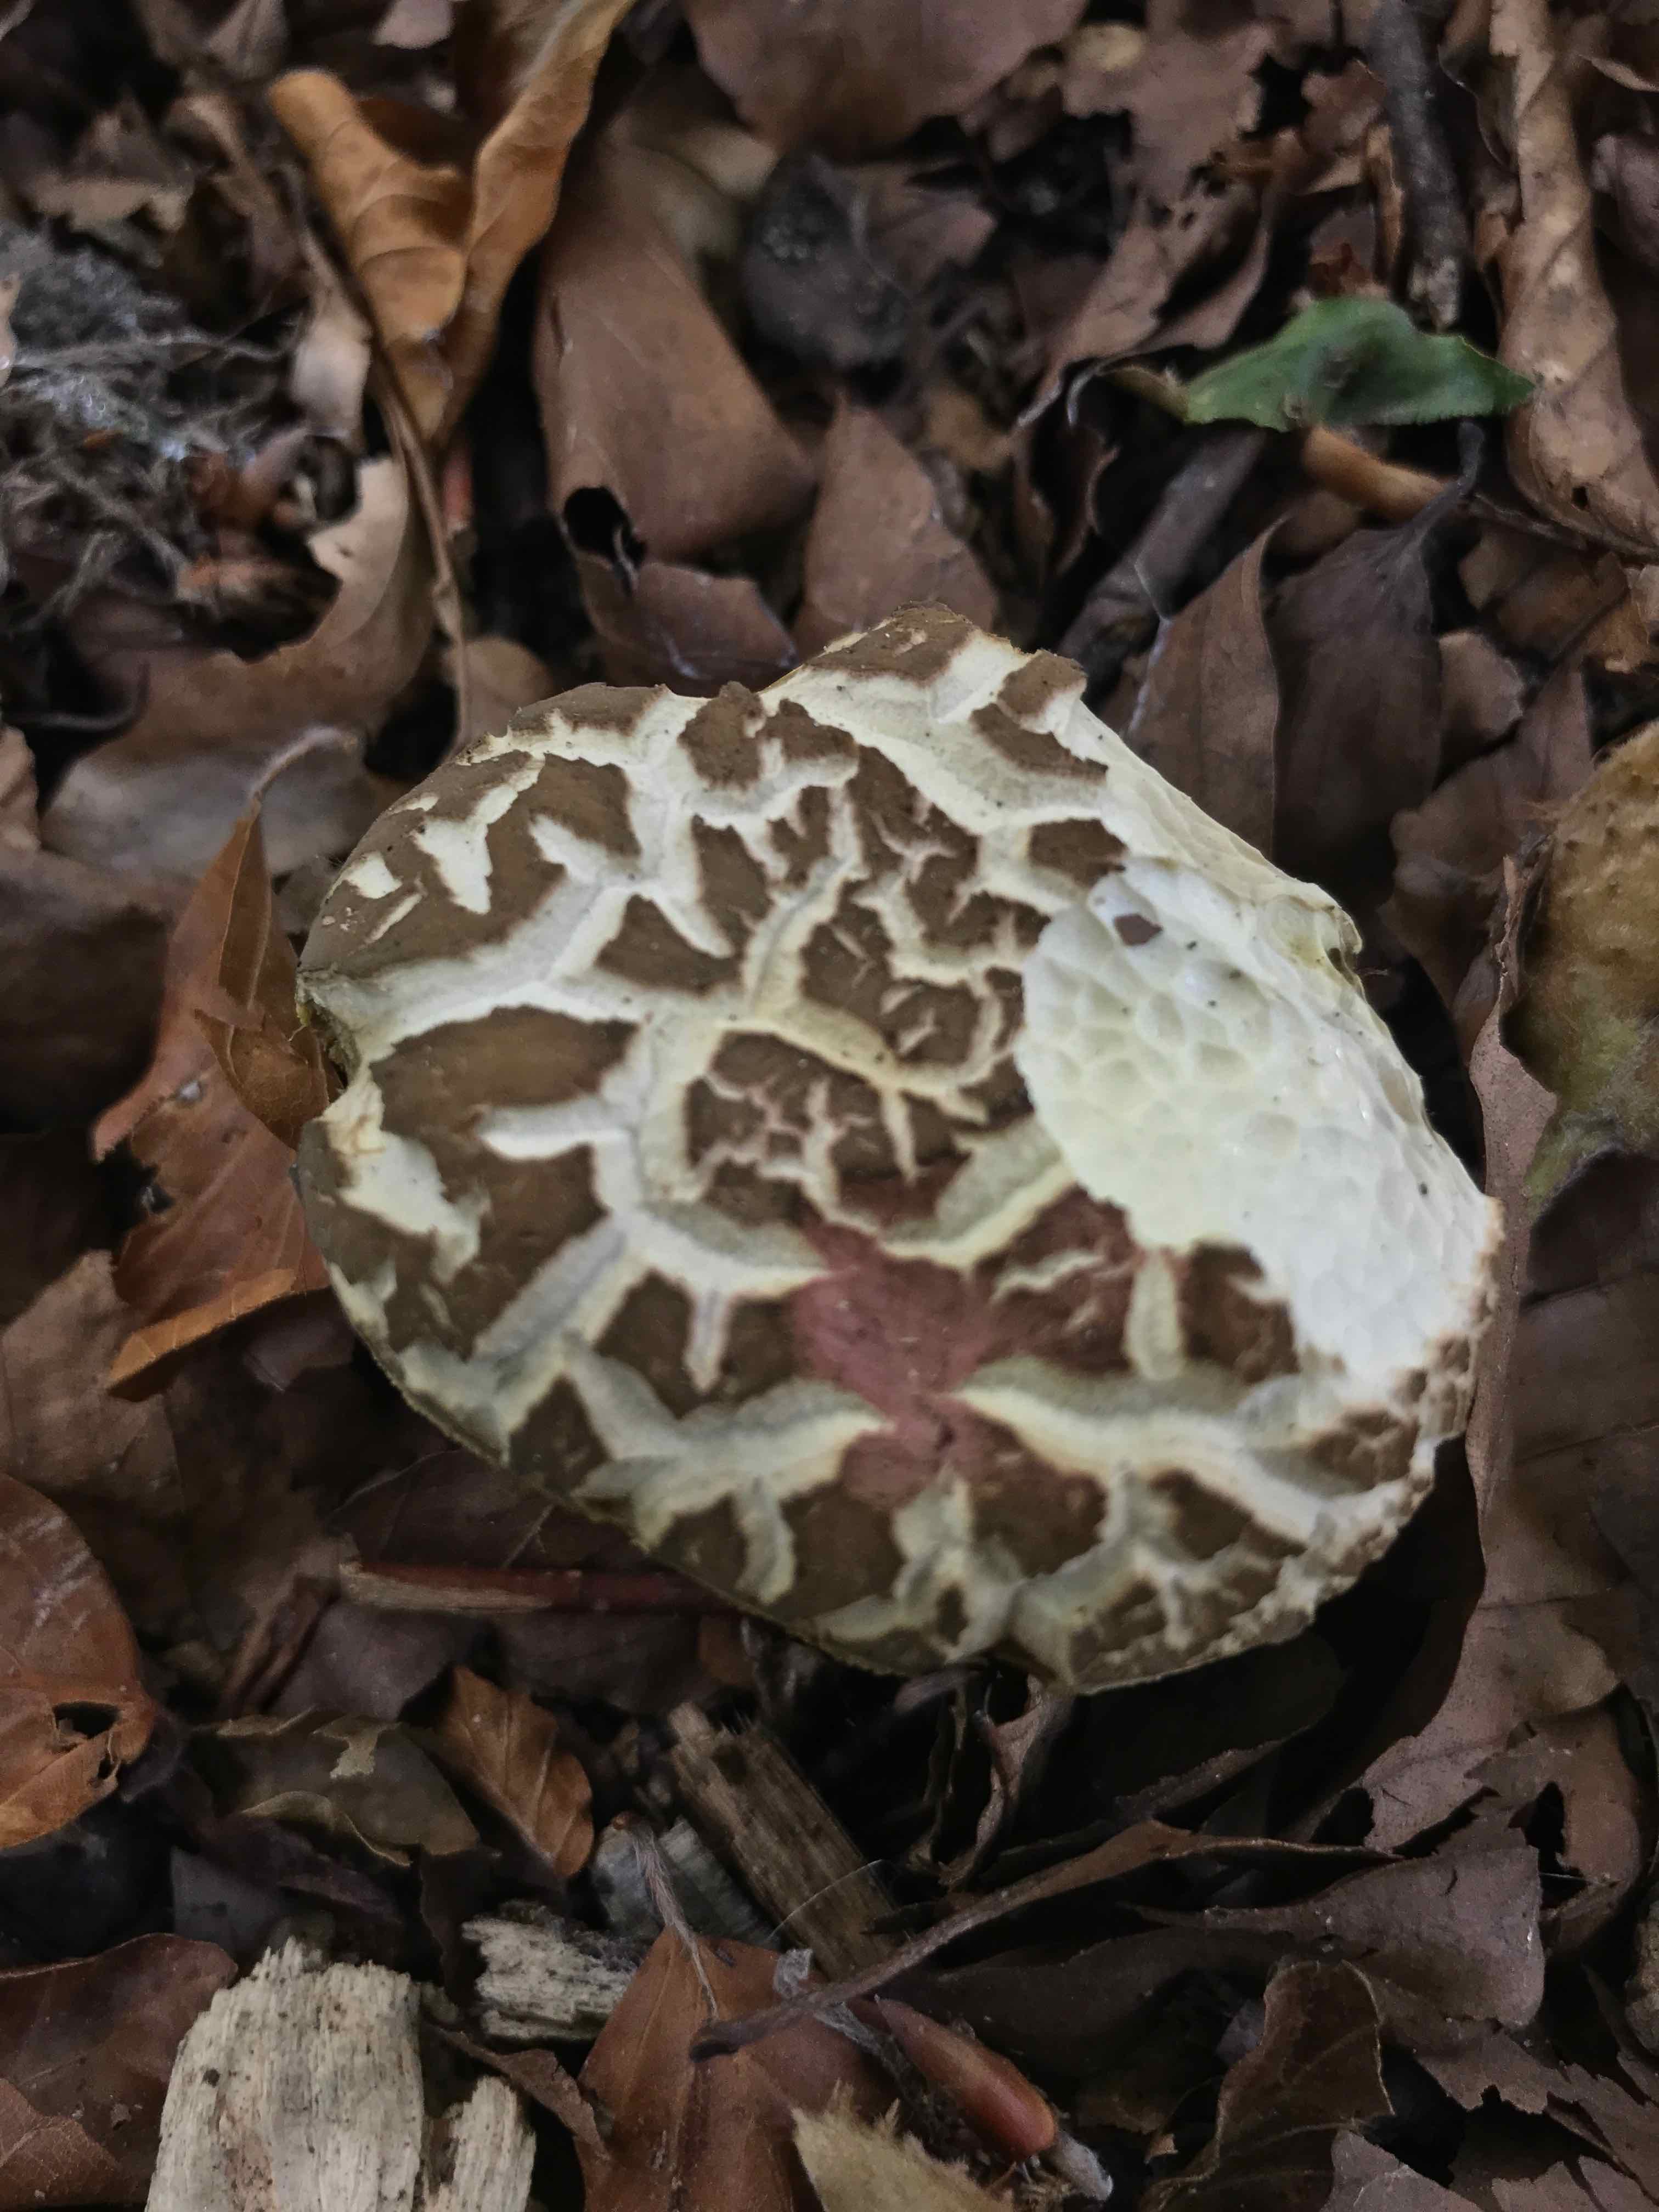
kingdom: Fungi
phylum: Basidiomycota
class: Agaricomycetes
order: Boletales
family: Boletaceae
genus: Xerocomellus
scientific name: Xerocomellus porosporus
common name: hvidsprukken rørhat
